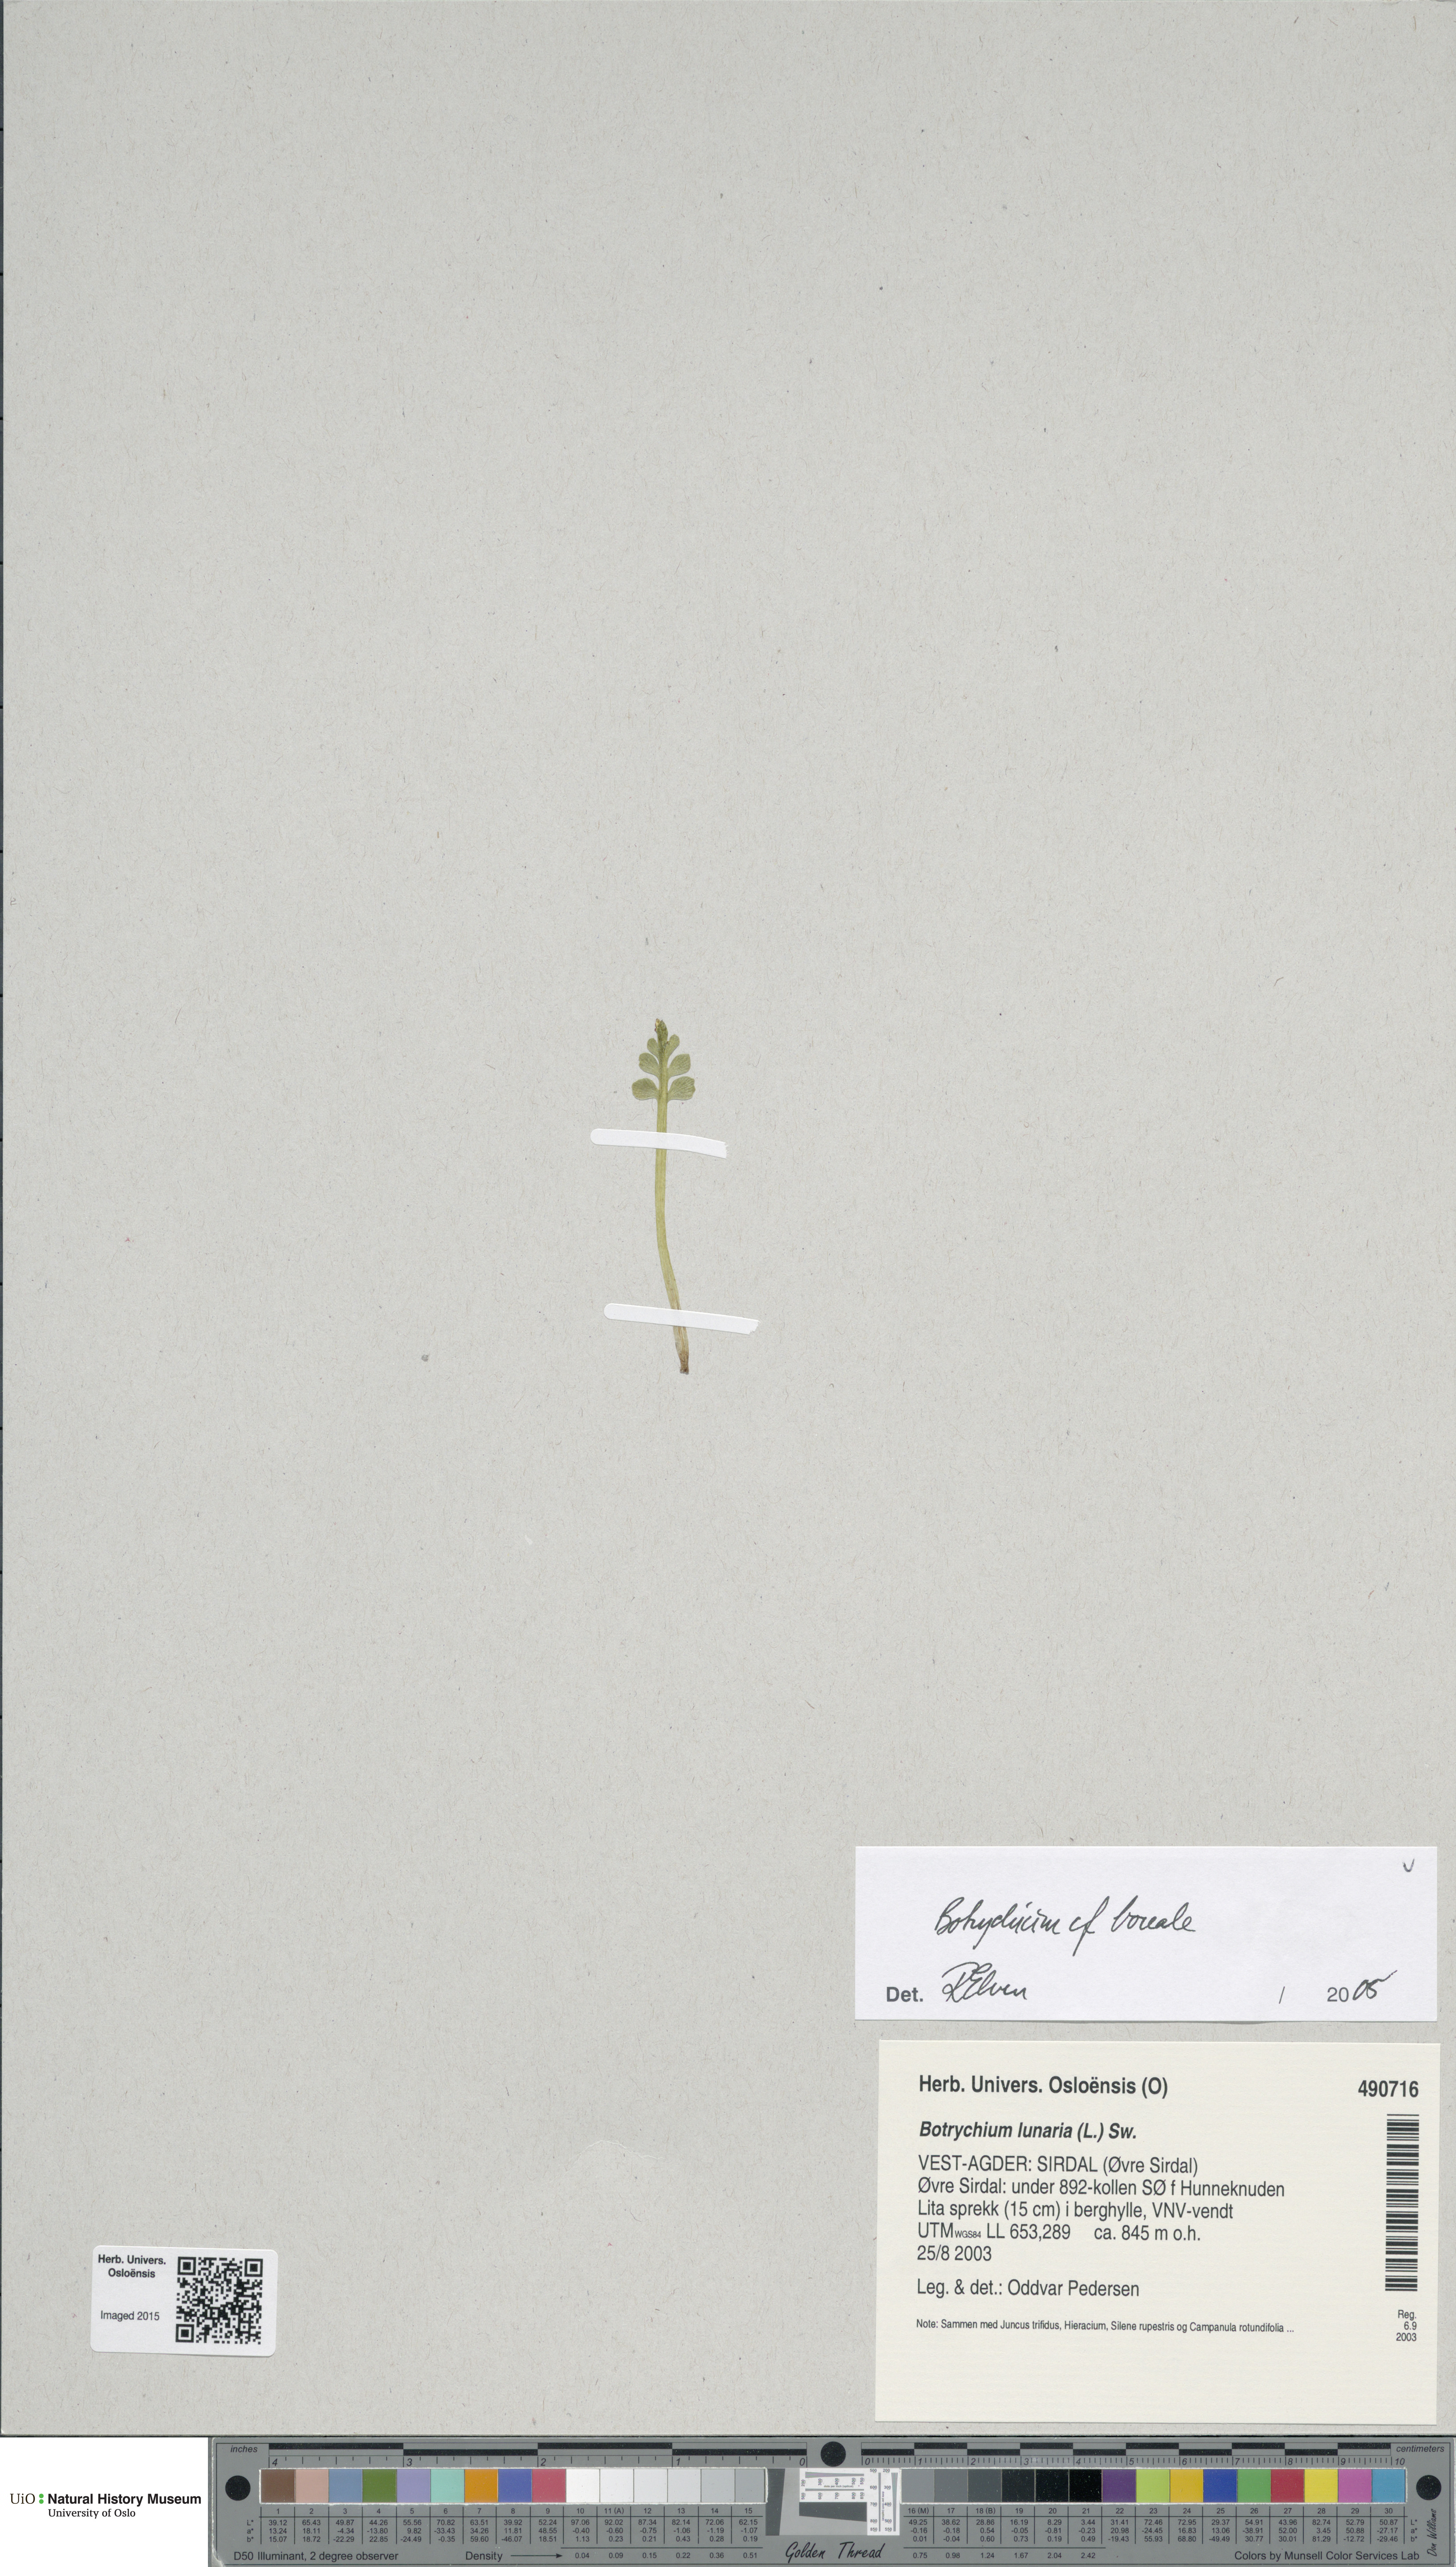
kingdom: Plantae
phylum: Tracheophyta
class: Polypodiopsida
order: Ophioglossales
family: Ophioglossaceae
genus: Botrychium
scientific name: Botrychium boreale
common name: Boreal moonwort
